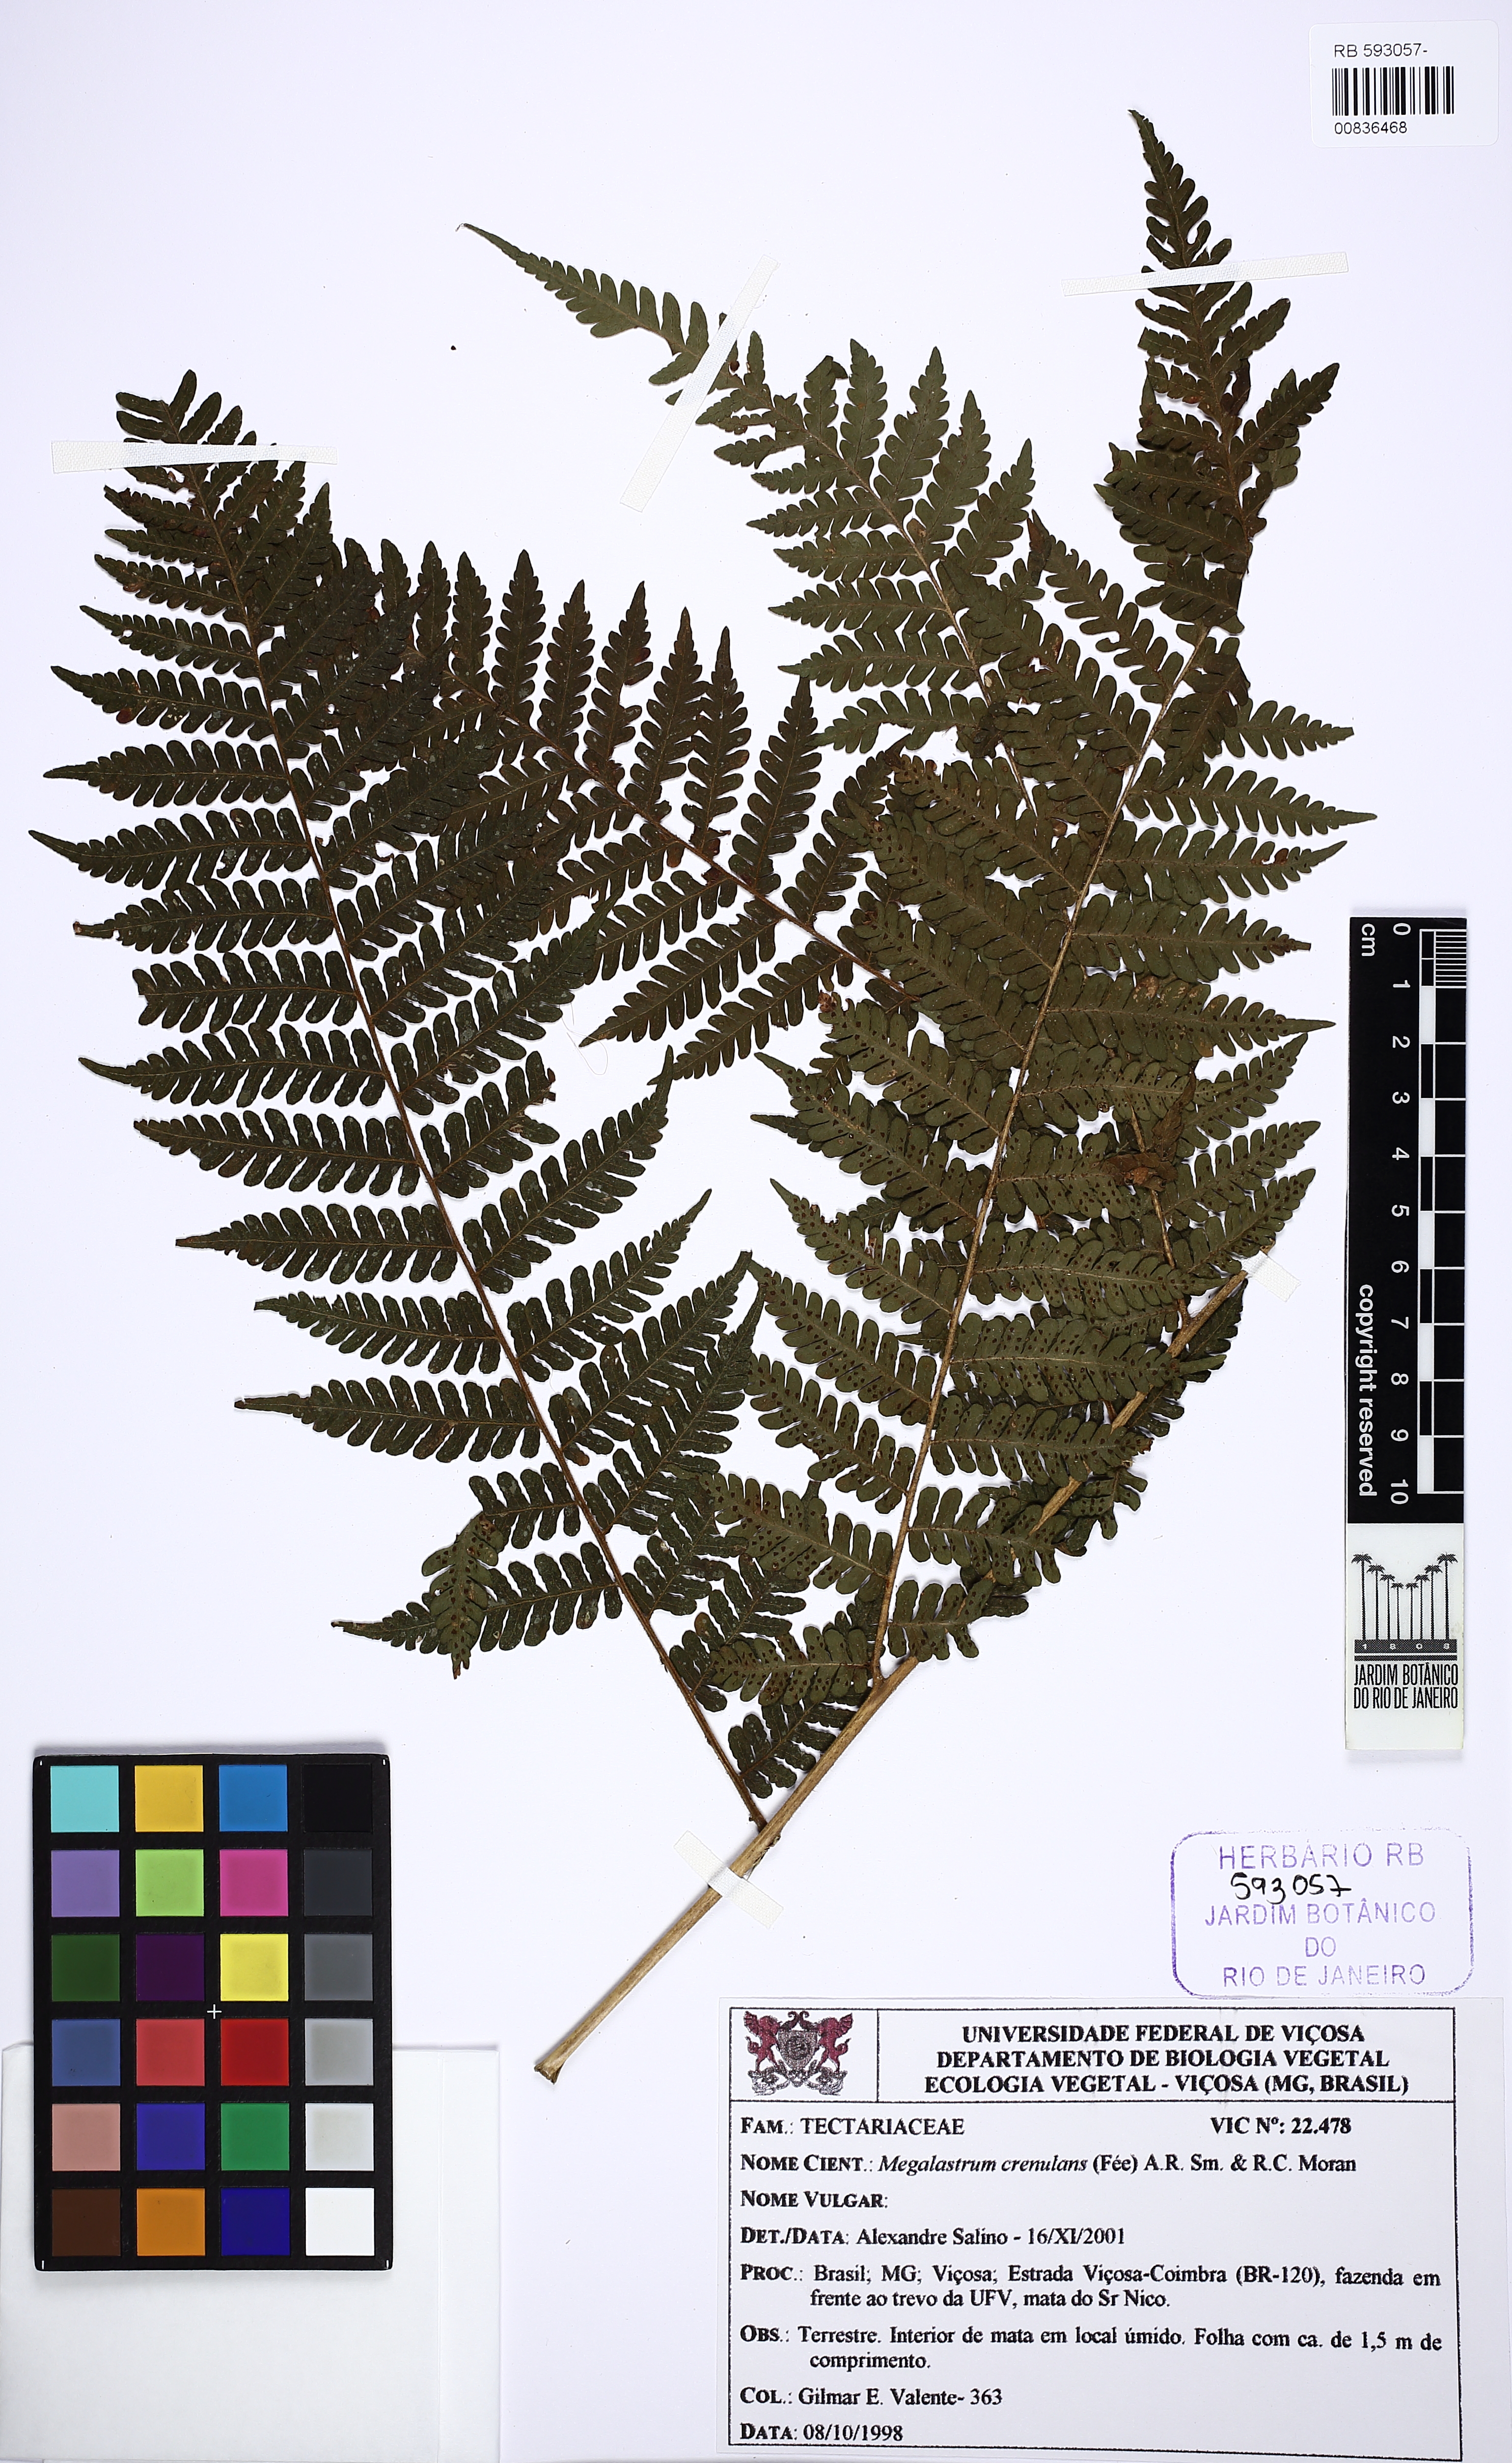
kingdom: Plantae
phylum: Tracheophyta
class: Polypodiopsida
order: Polypodiales
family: Dryopteridaceae
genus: Megalastrum
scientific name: Megalastrum crenulans
